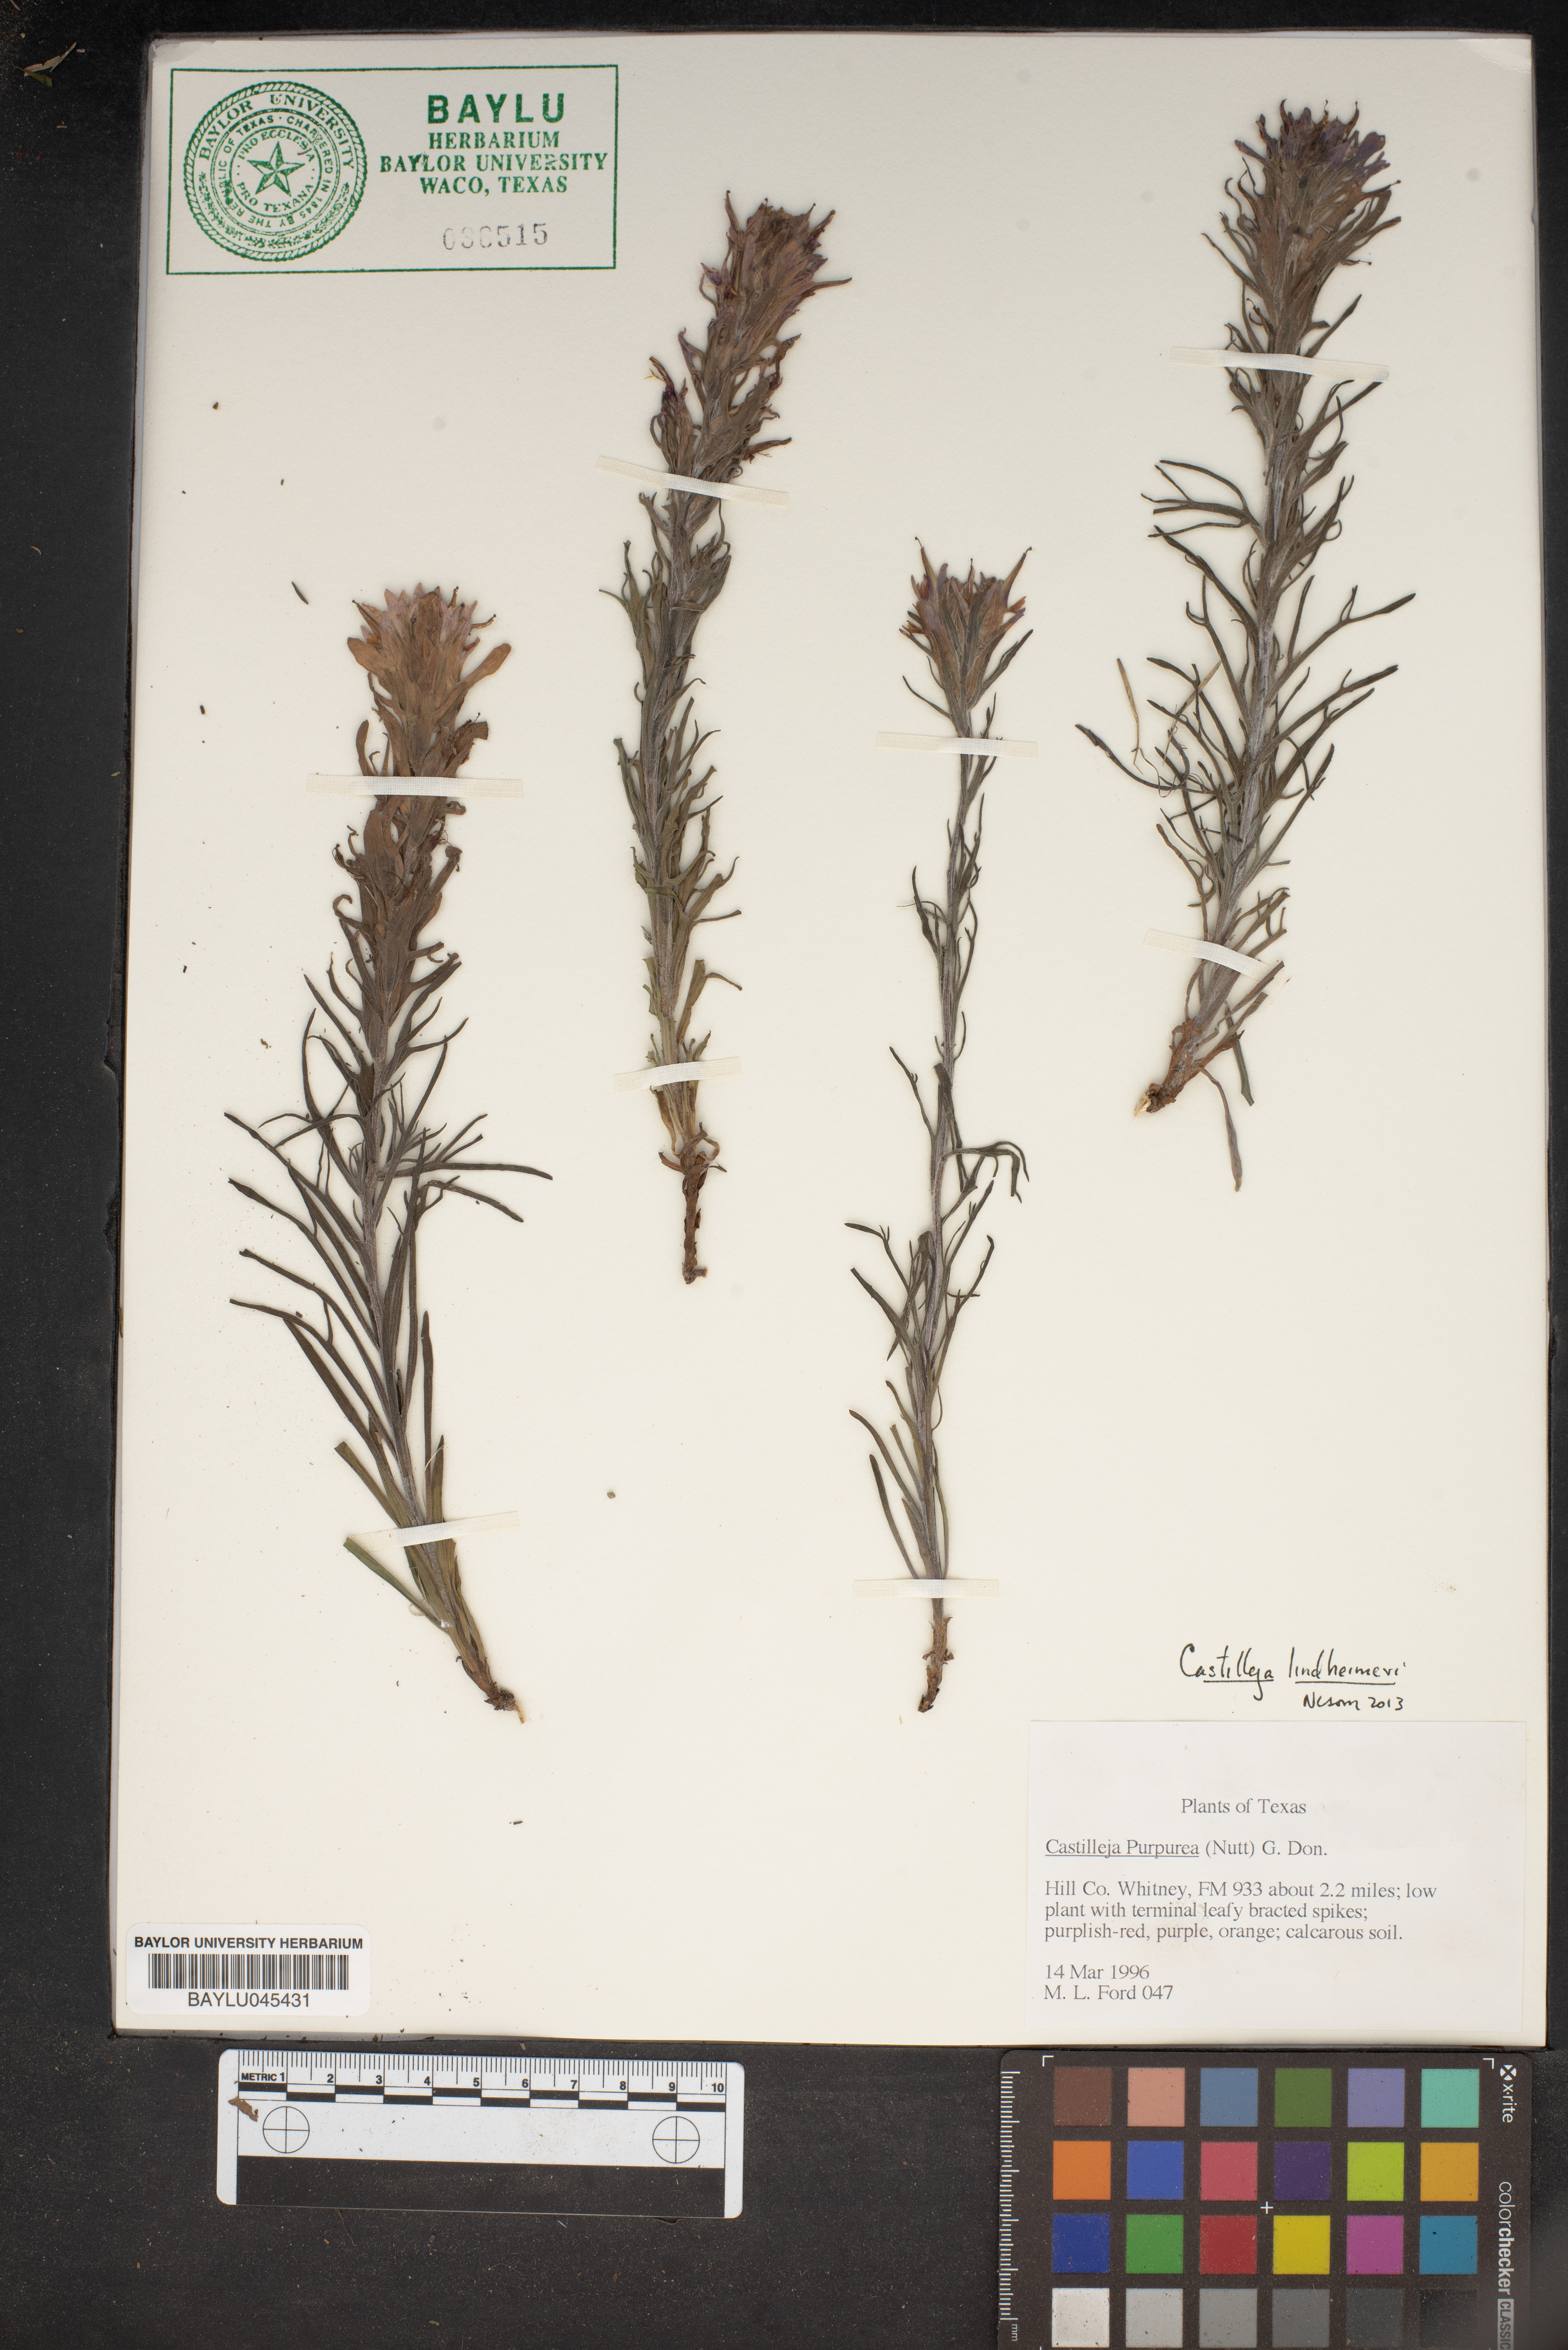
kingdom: Plantae
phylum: Tracheophyta
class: Magnoliopsida
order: Lamiales
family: Orobanchaceae
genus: Castilleja
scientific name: Castilleja purpurea
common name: Plains paintbrush
